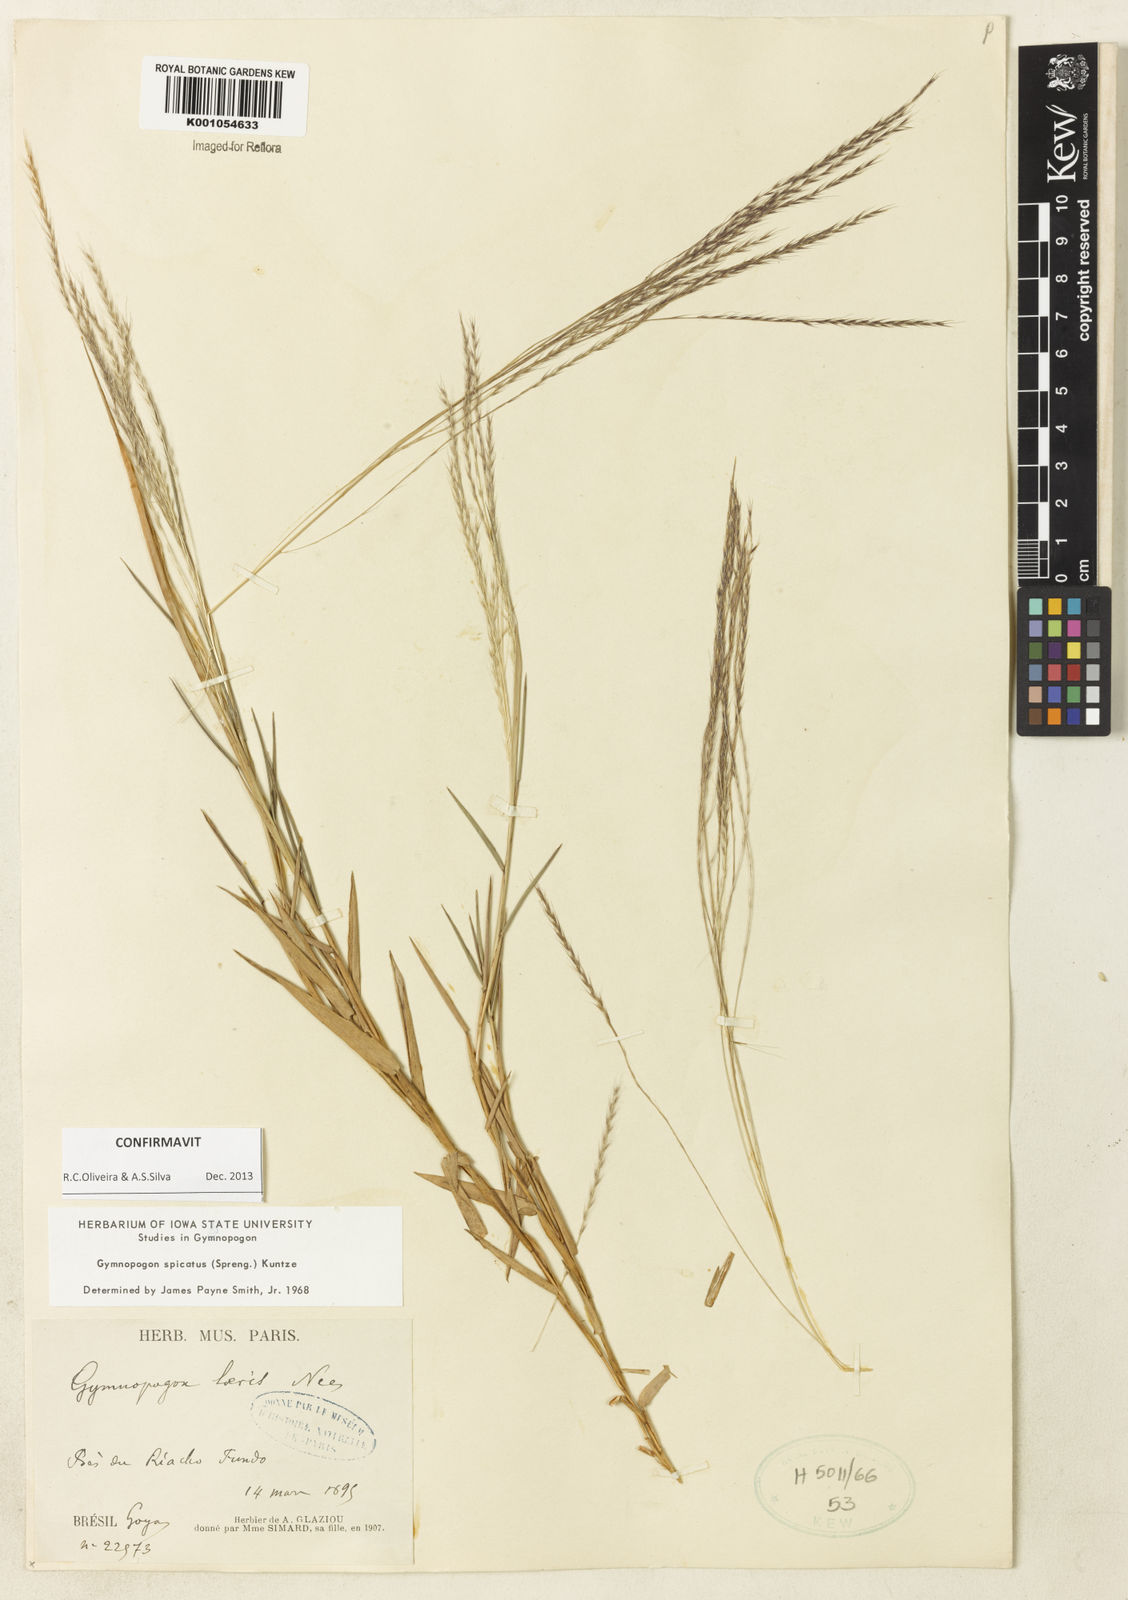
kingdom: Plantae
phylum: Tracheophyta
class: Liliopsida
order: Poales
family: Poaceae
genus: Gymnopogon
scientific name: Gymnopogon spicatus
